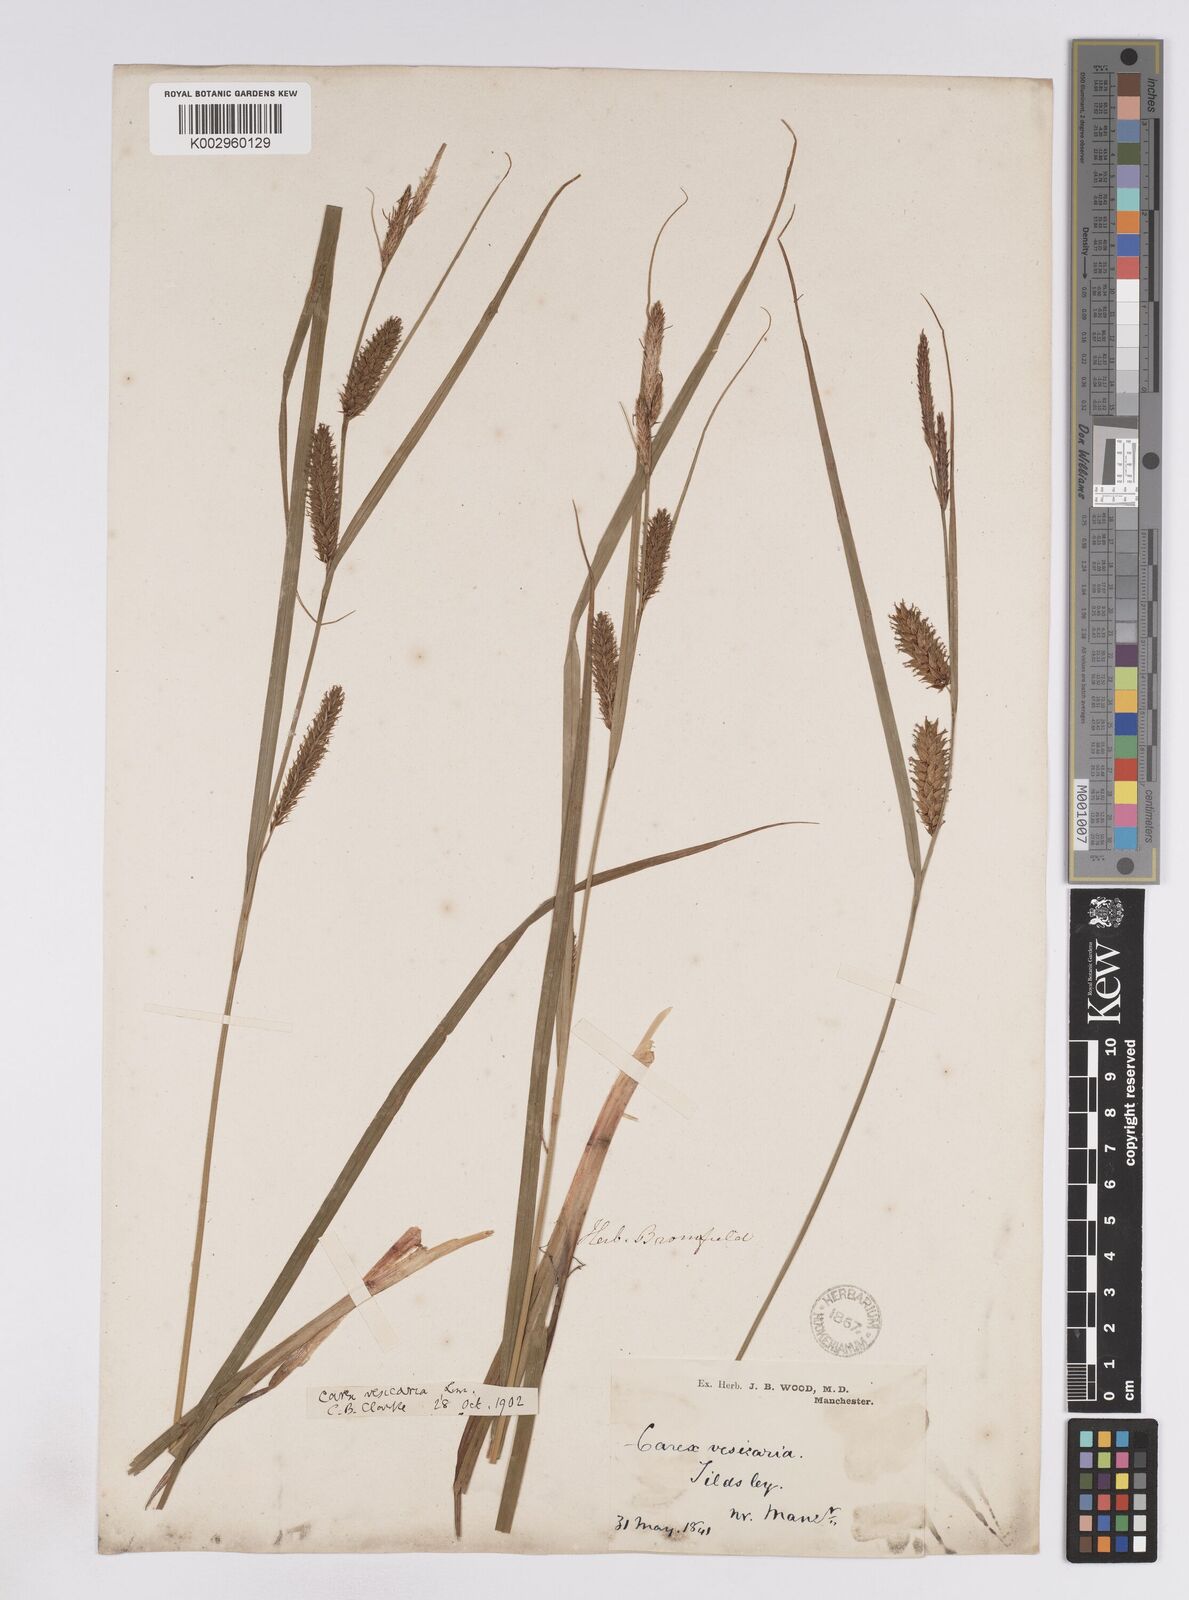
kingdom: Plantae
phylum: Tracheophyta
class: Liliopsida
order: Poales
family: Cyperaceae
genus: Carex
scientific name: Carex vesicaria
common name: Bladder-sedge
